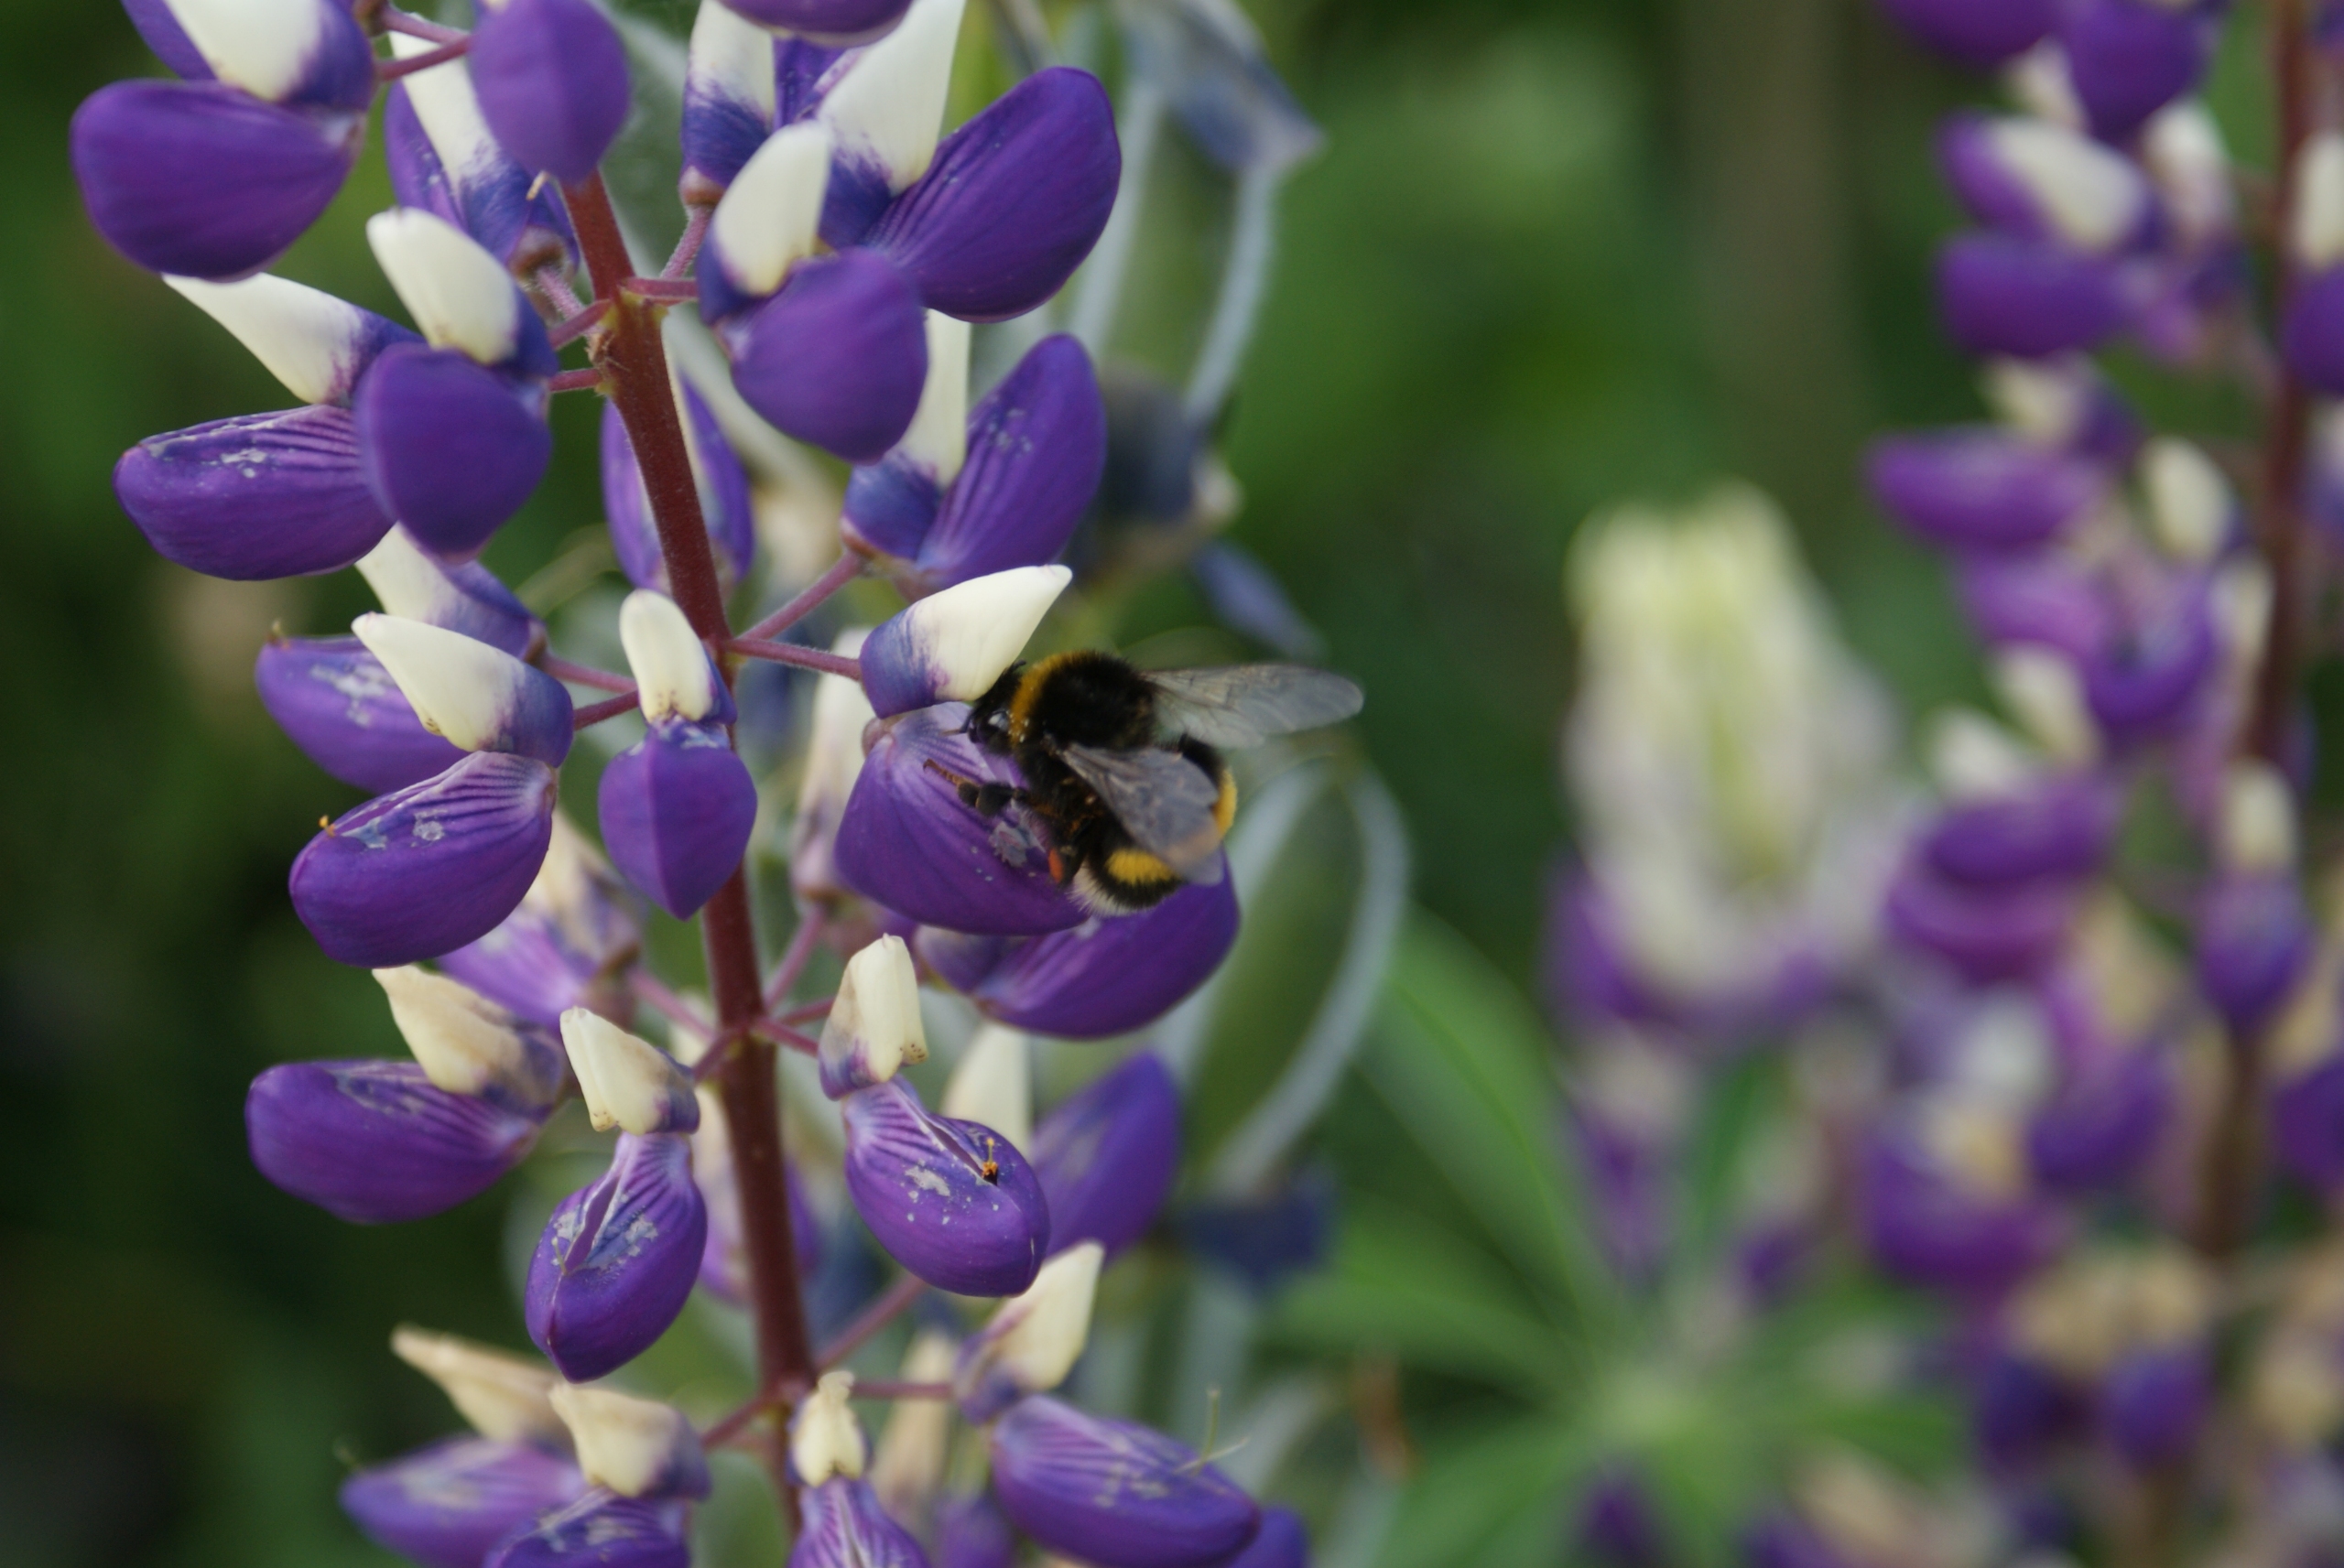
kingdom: Animalia
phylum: Arthropoda
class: Insecta
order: Hymenoptera
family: Apidae
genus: Bombus
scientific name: Bombus
